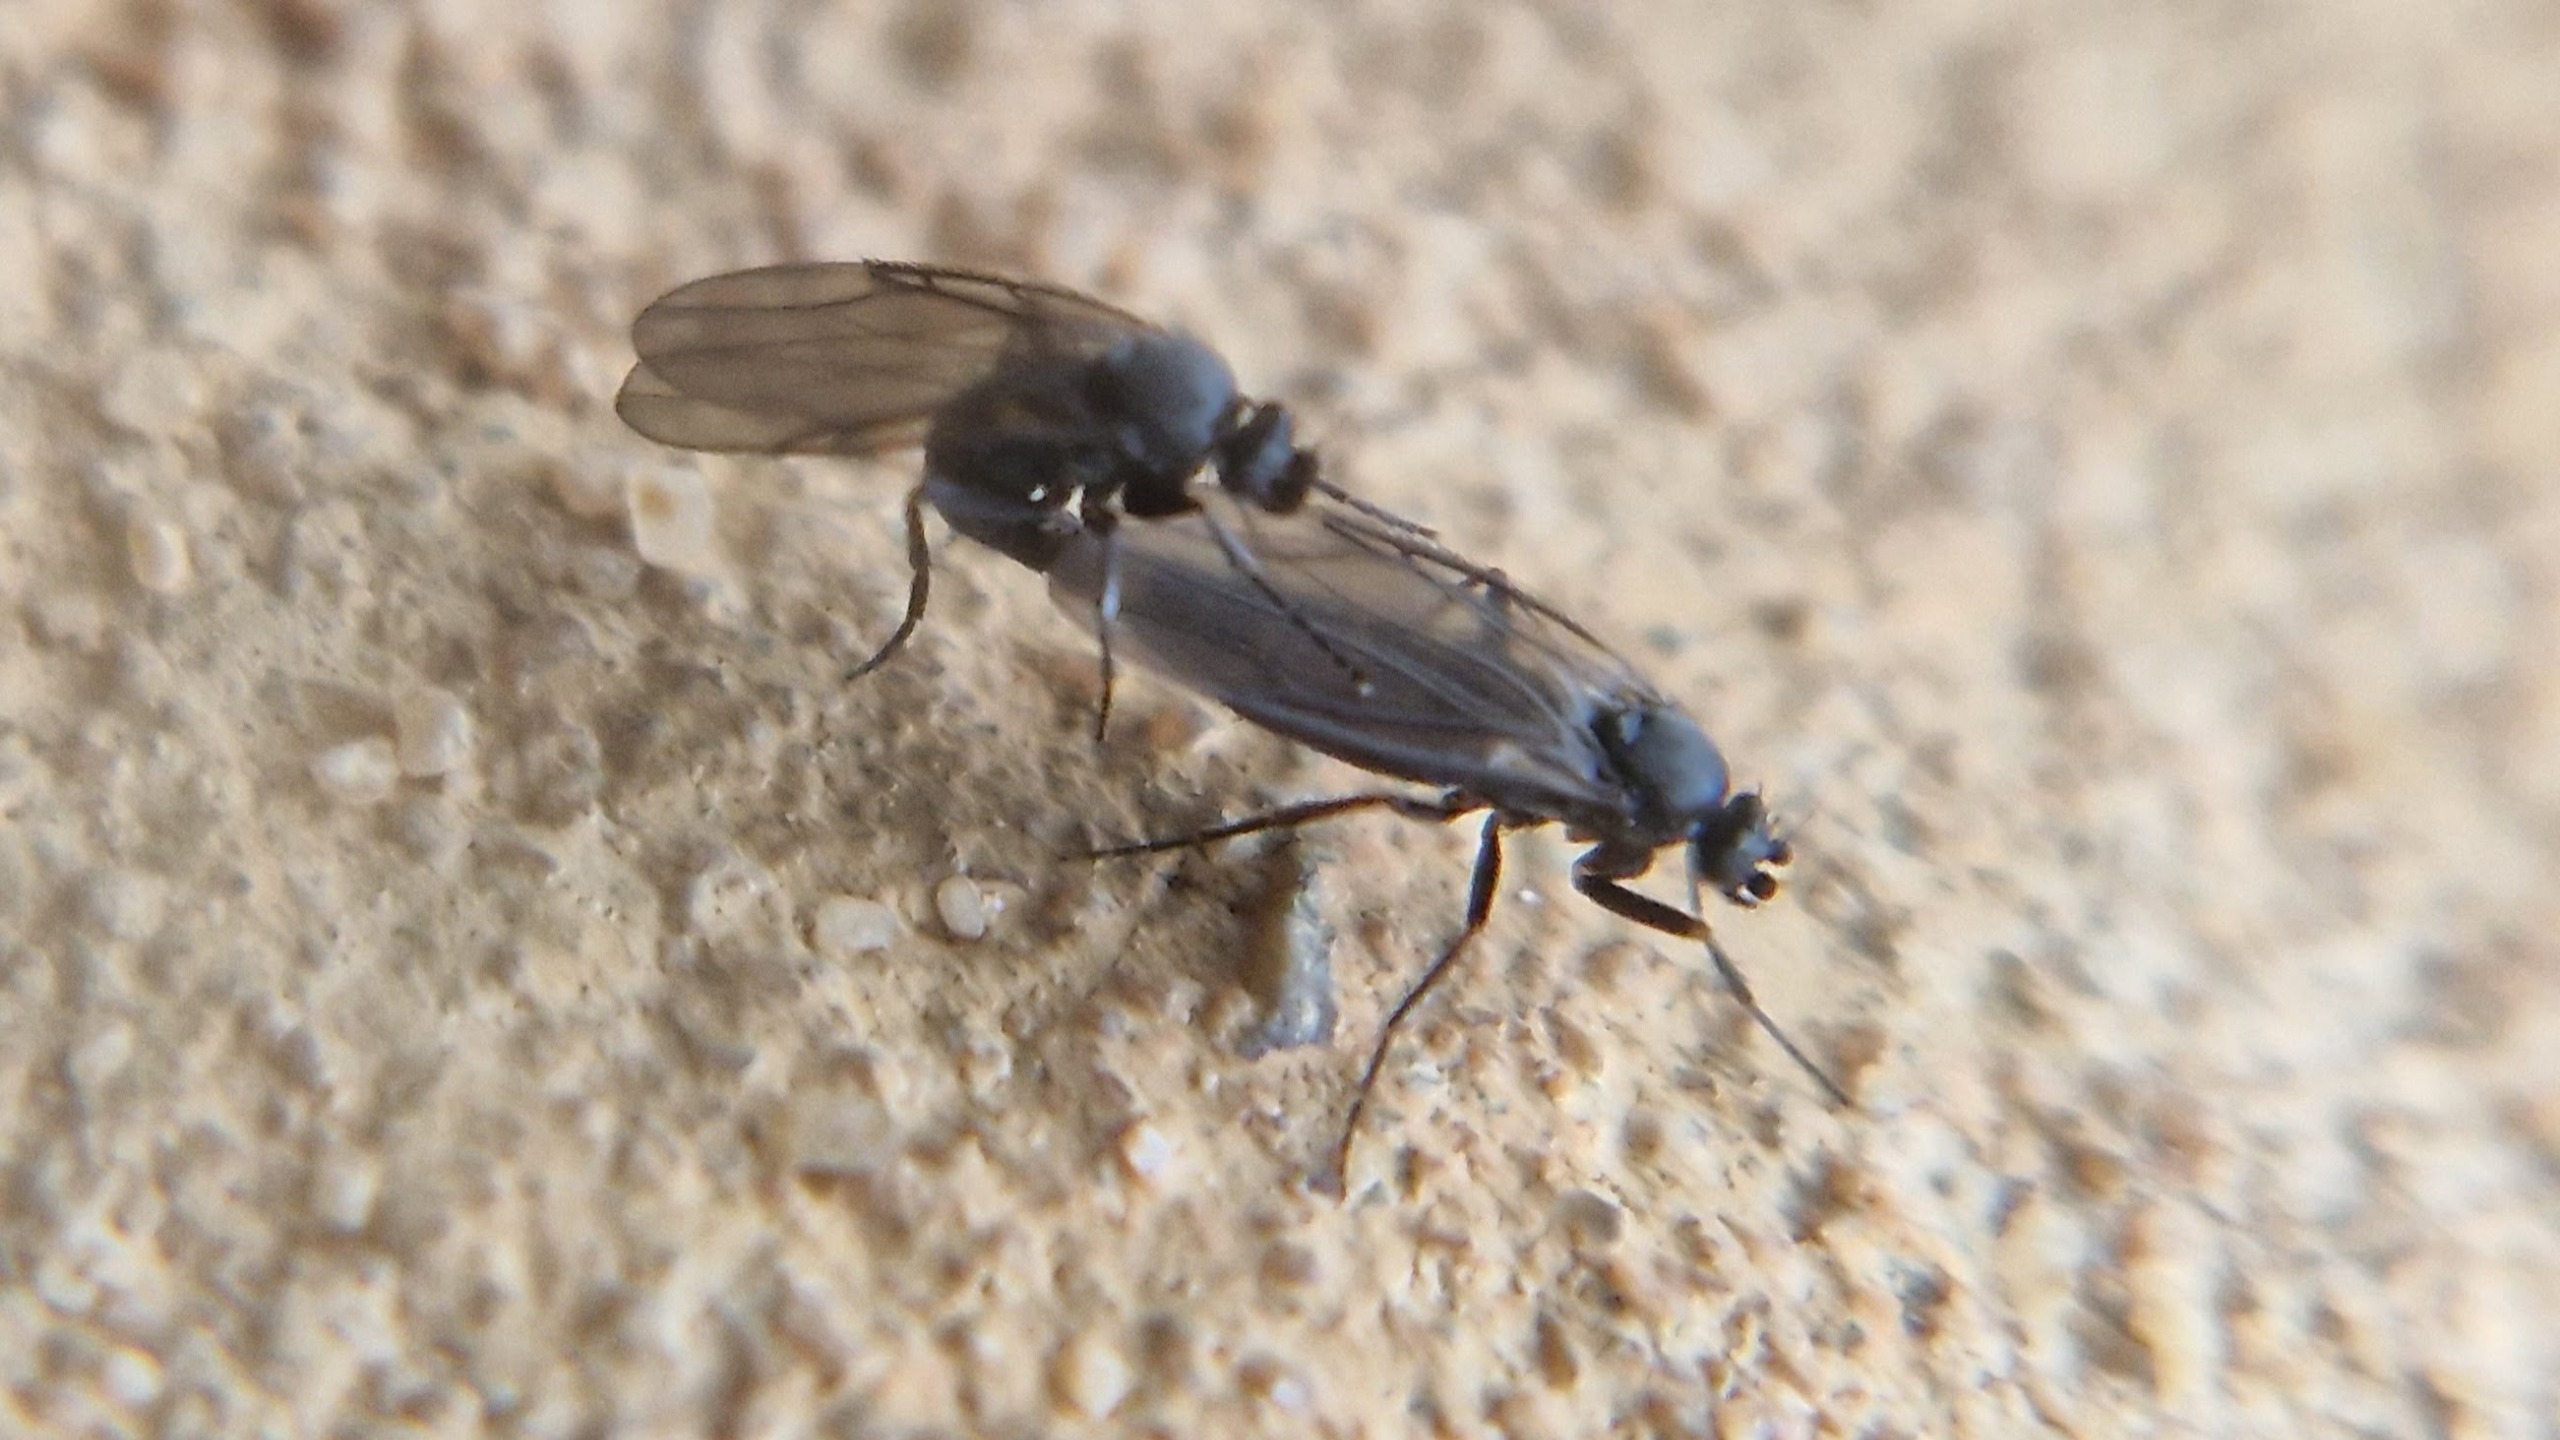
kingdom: Animalia
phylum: Arthropoda
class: Insecta
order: Diptera
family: Phoridae
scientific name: Phoridae
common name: Pukkelfluer
